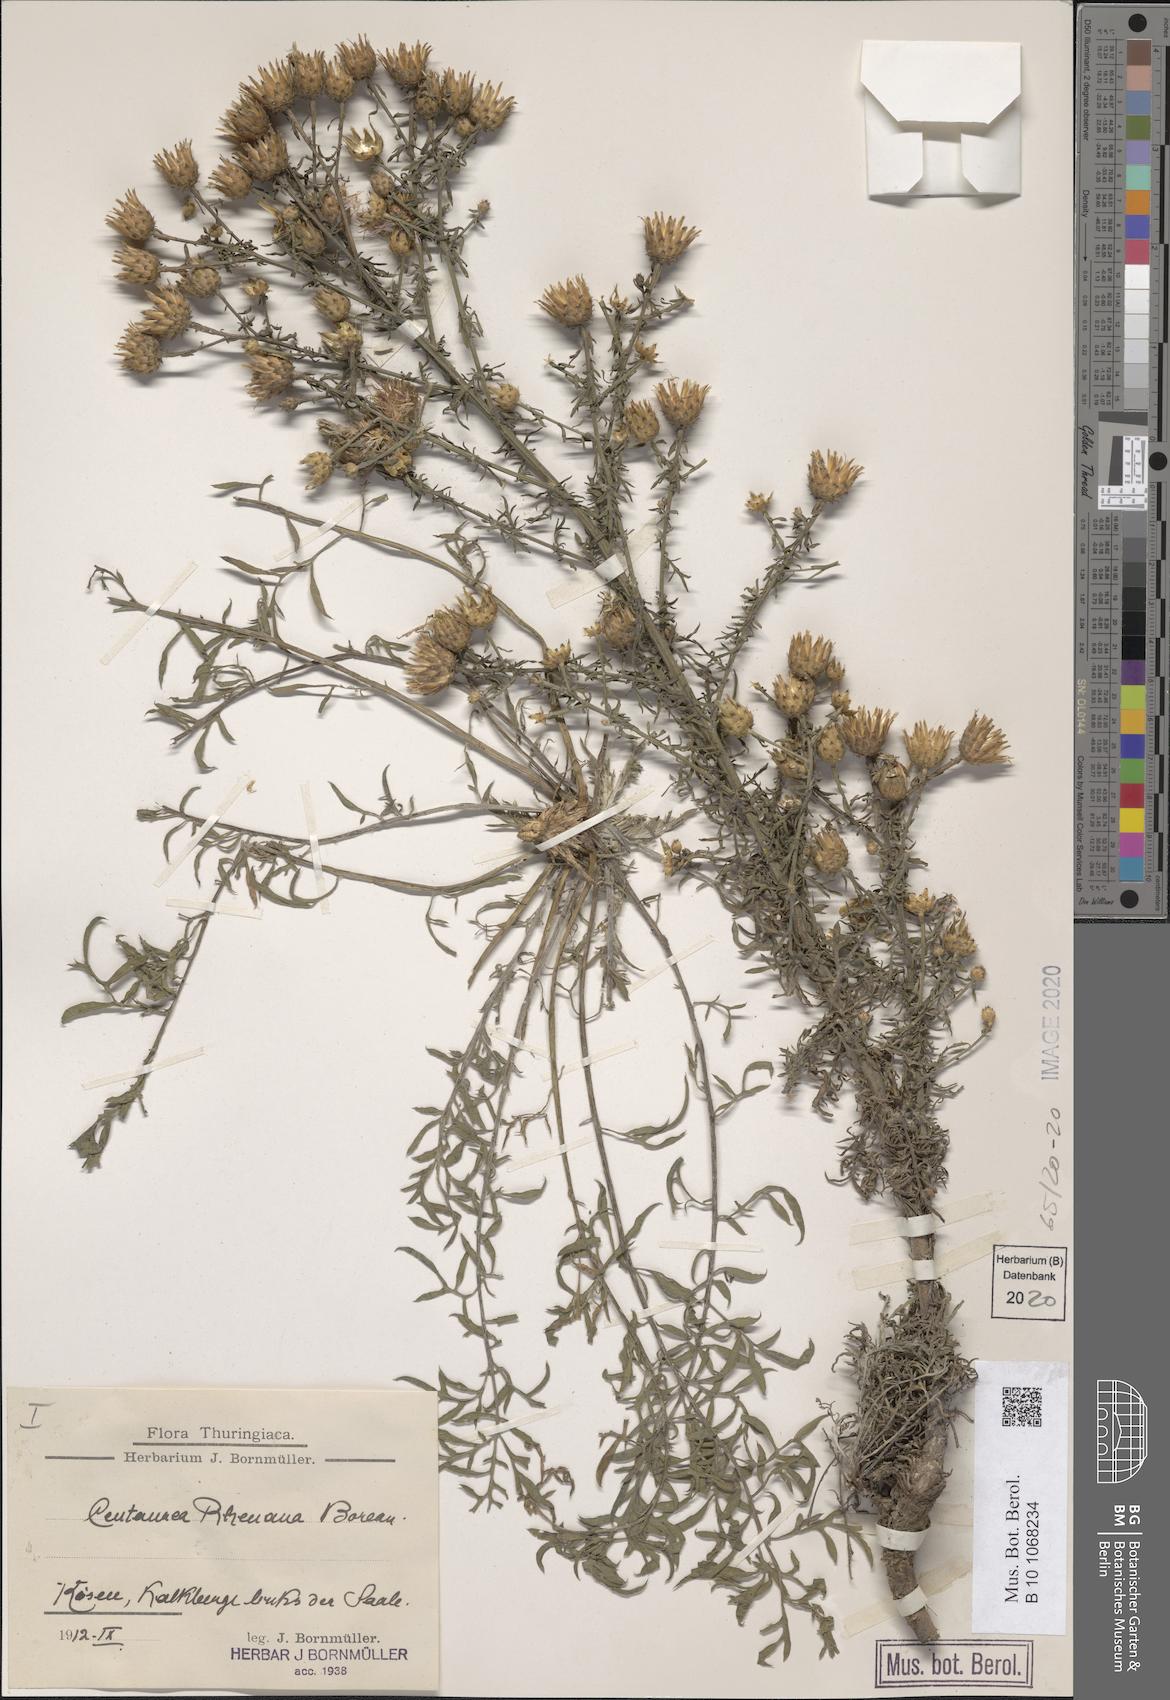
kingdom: Plantae
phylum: Tracheophyta
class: Magnoliopsida
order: Asterales
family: Asteraceae
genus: Centaurea
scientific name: Centaurea stoebe
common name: Spotted knapweed
